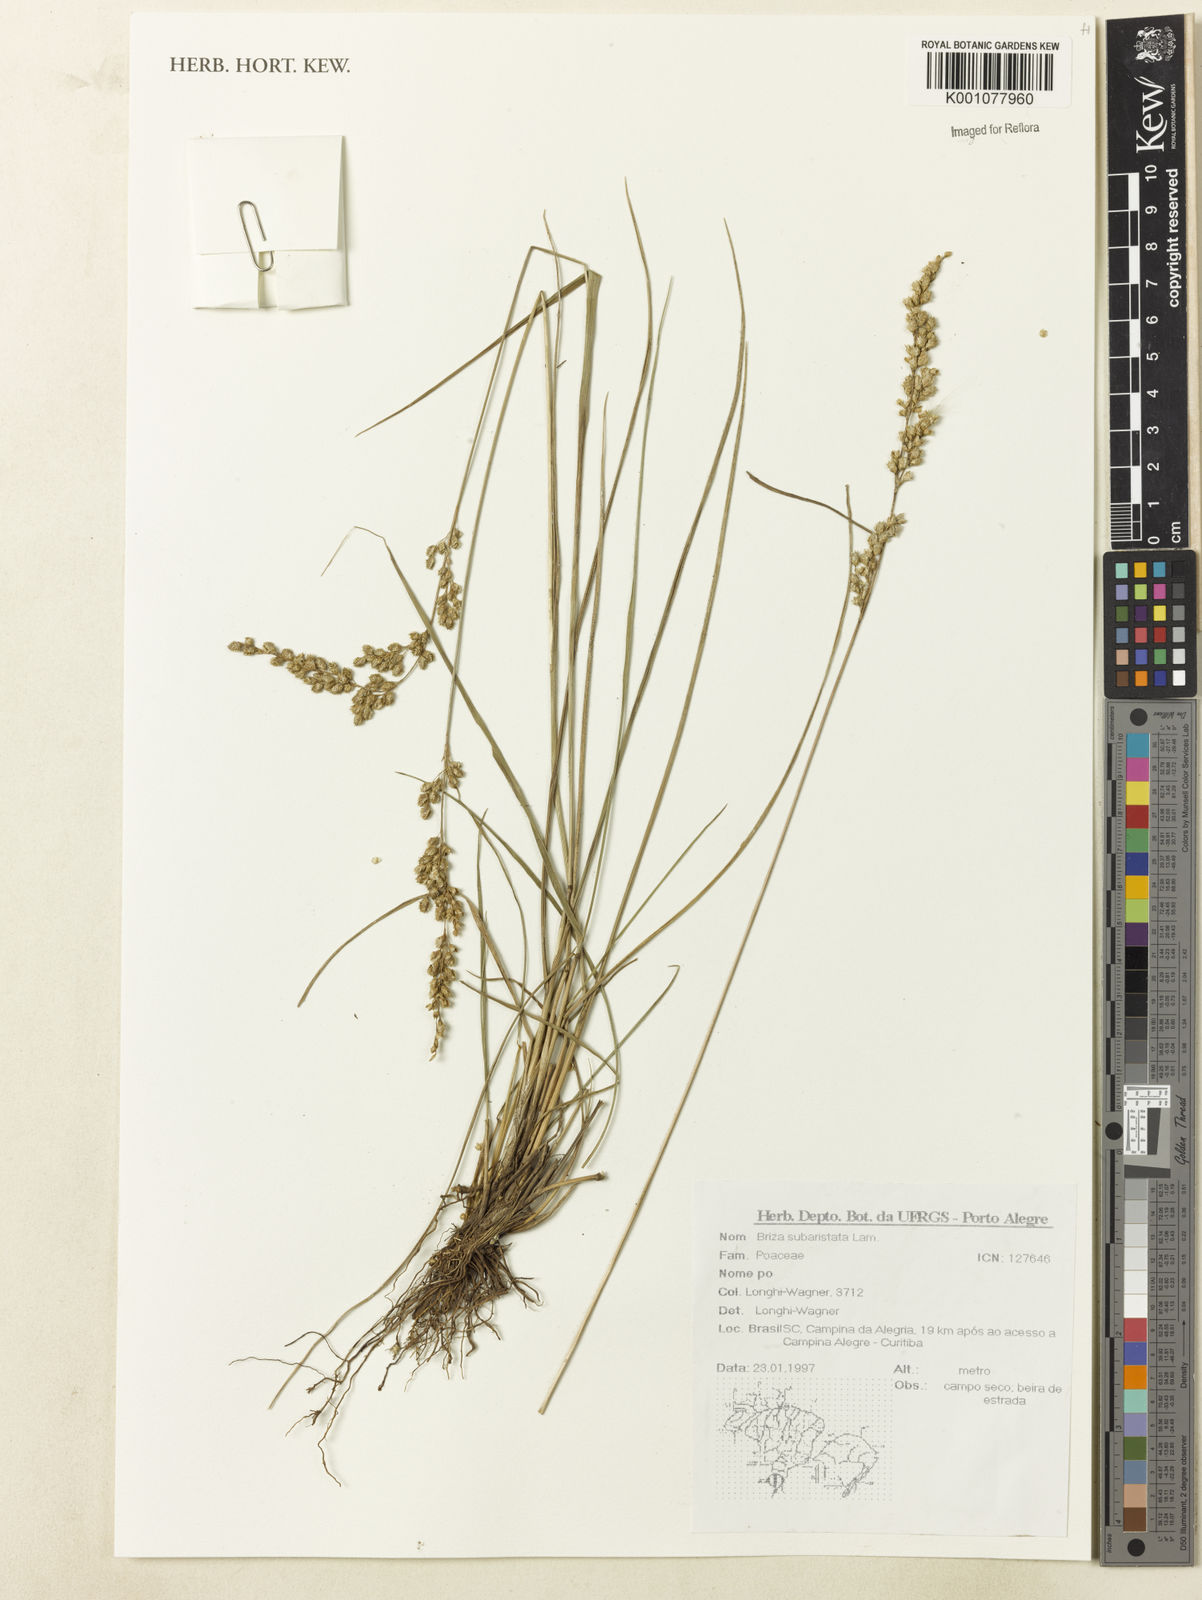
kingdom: Plantae
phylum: Tracheophyta
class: Liliopsida
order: Poales
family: Poaceae
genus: Briza
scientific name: Briza
